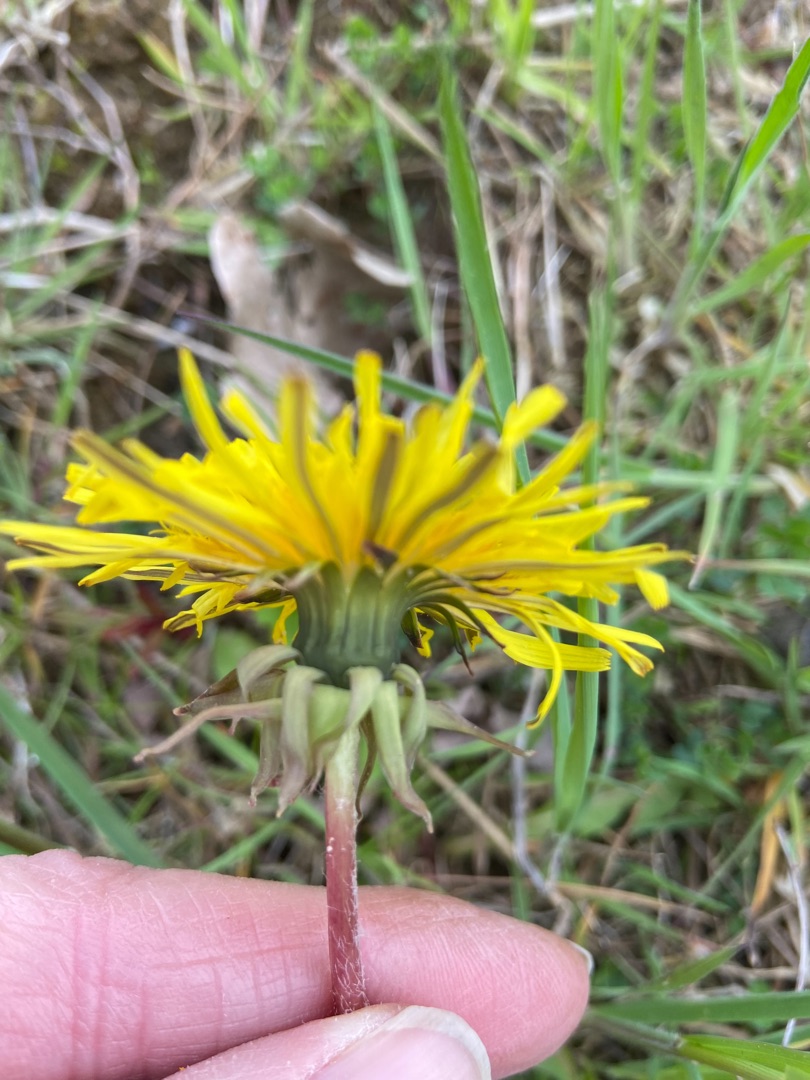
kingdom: Plantae
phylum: Tracheophyta
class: Magnoliopsida
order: Asterales
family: Asteraceae
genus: Taraxacum
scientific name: Taraxacum
